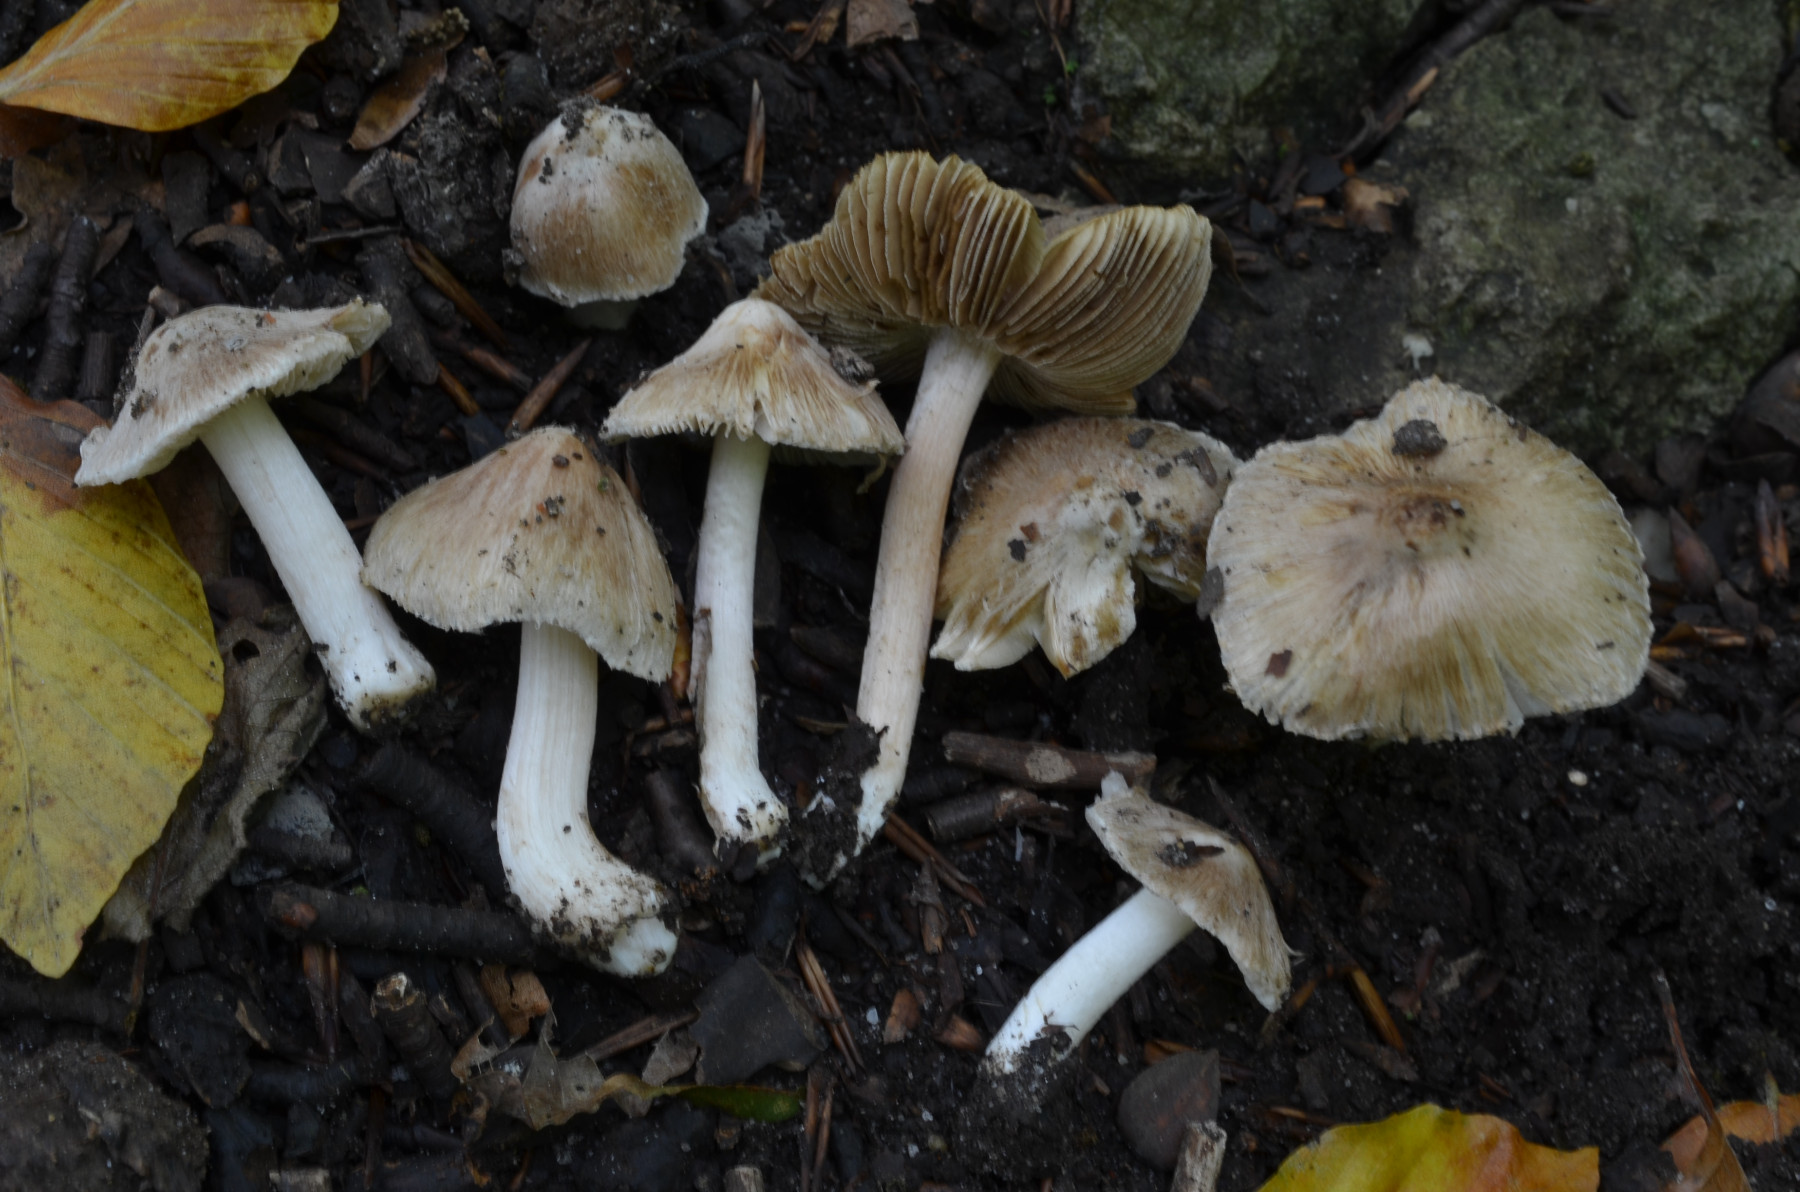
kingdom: Fungi
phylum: Basidiomycota
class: Agaricomycetes
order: Agaricales
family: Inocybaceae
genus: Pseudosperma
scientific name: Pseudosperma obsoletum
